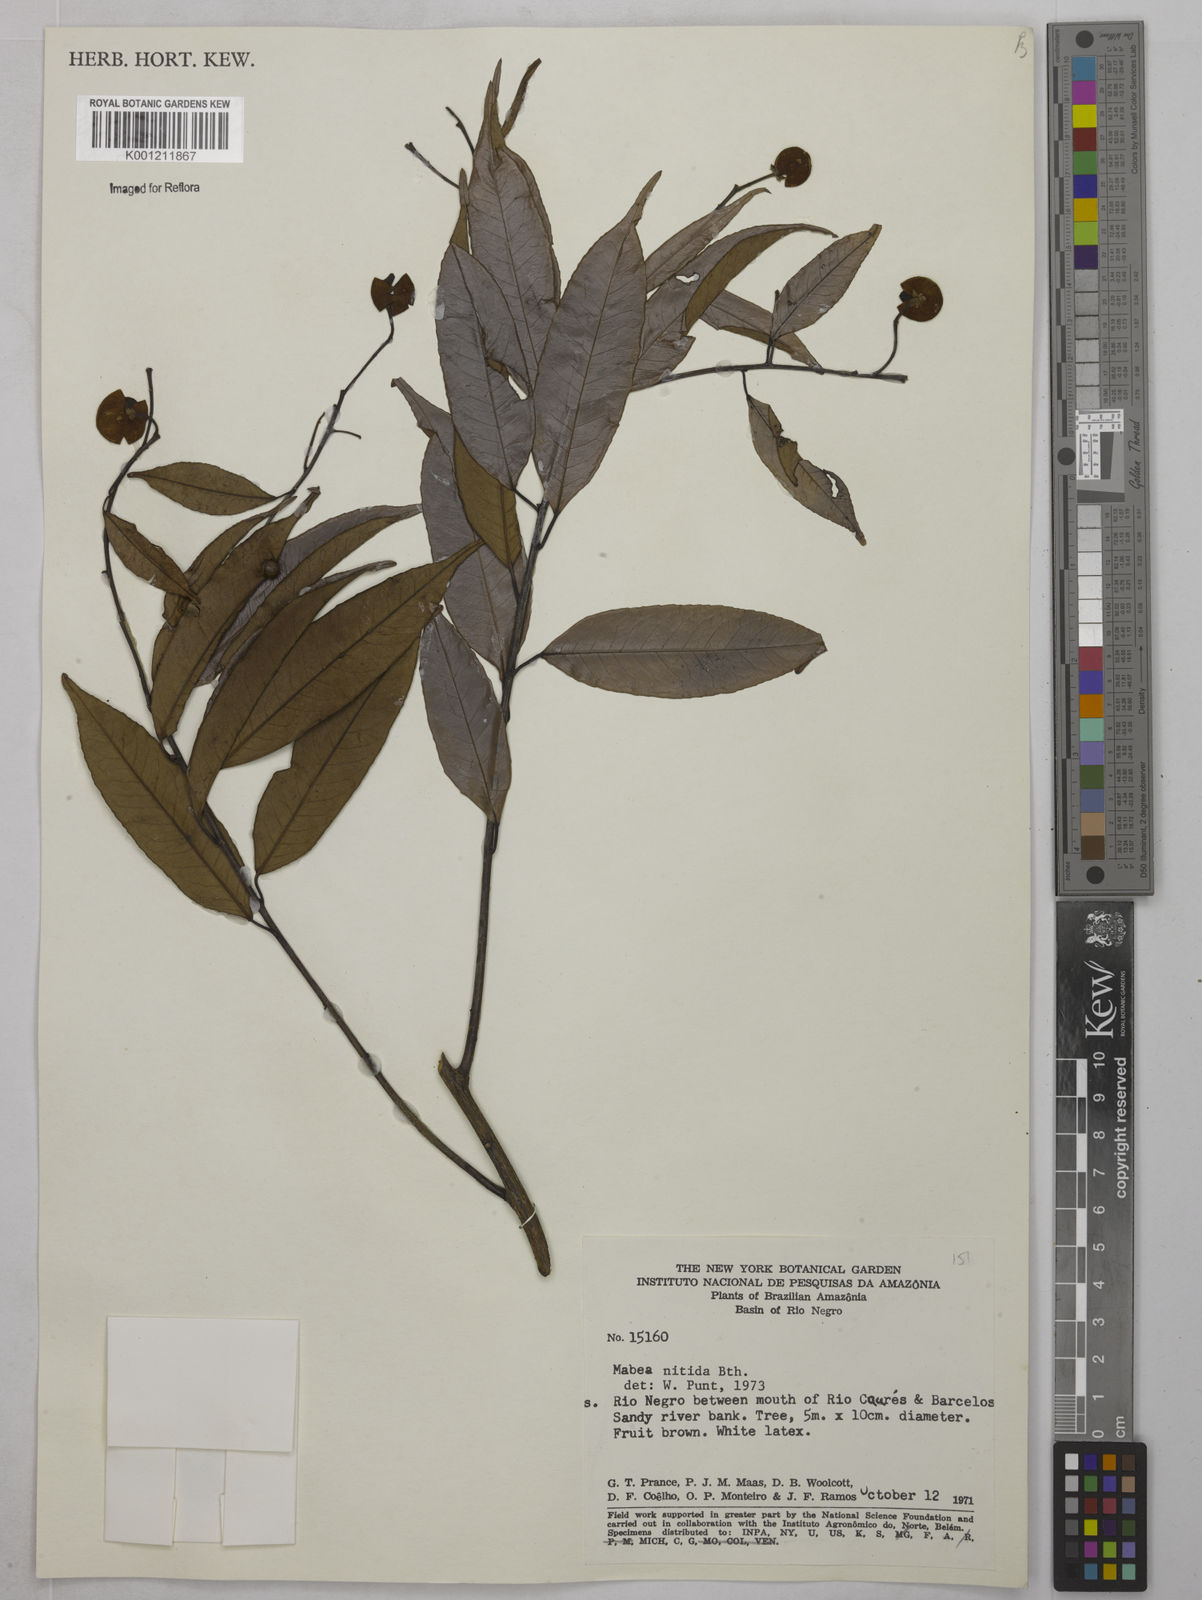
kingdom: Plantae
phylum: Tracheophyta
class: Magnoliopsida
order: Malpighiales
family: Euphorbiaceae
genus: Mabea
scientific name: Mabea nitida
